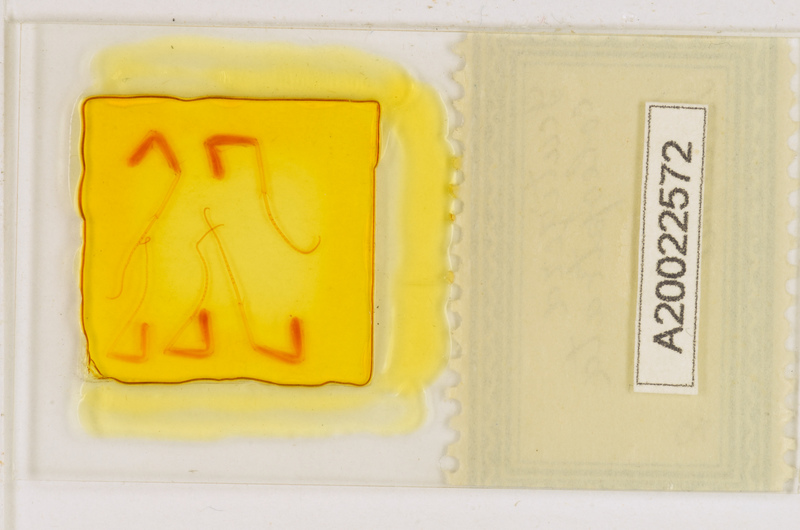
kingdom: Animalia
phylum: Arthropoda
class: Chilopoda
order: Scutigeromorpha
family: Scutigeridae
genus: Scutigera
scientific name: Scutigera coleoptrata
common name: House centipede
